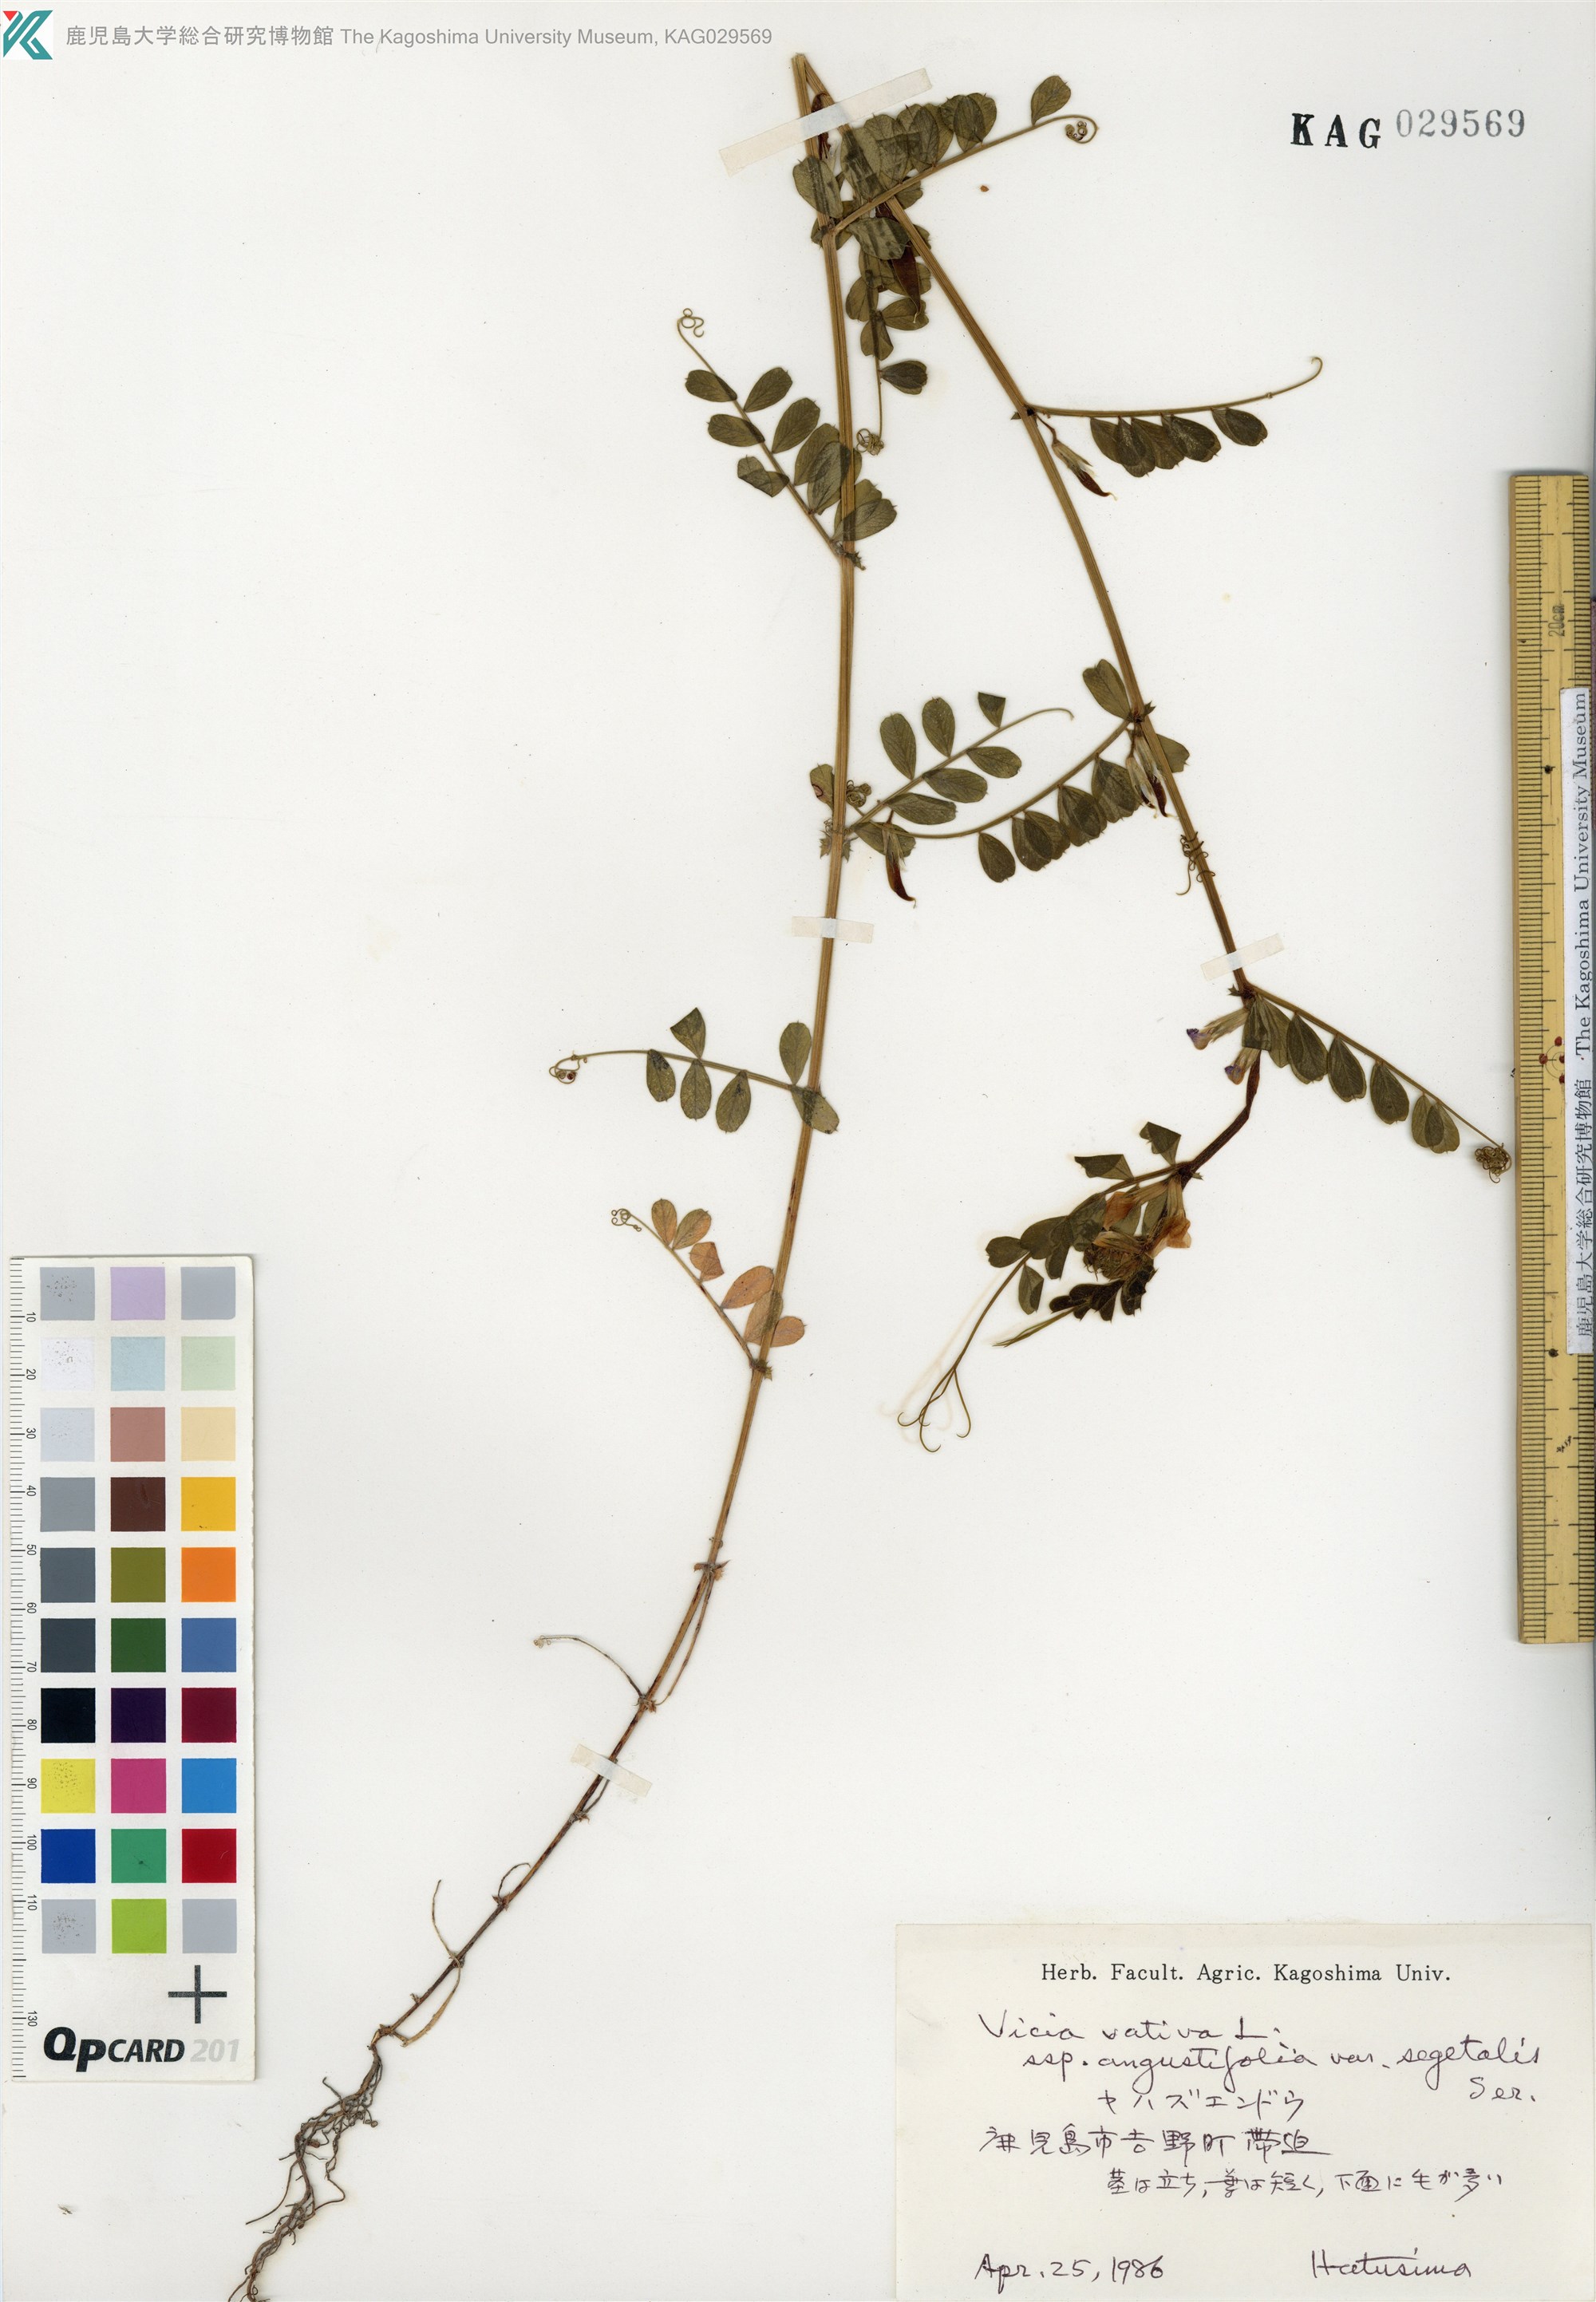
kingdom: Plantae
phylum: Tracheophyta
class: Magnoliopsida
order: Fabales
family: Fabaceae
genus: Vicia
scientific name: Vicia sativa
